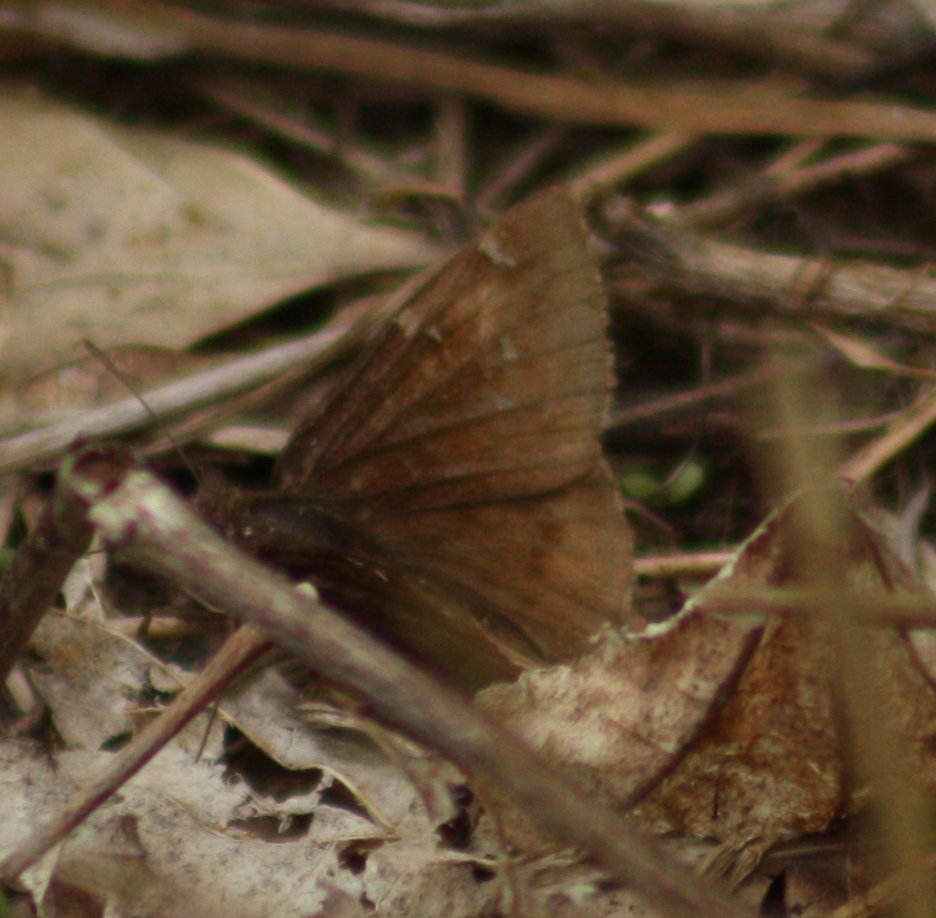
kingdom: Animalia
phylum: Arthropoda
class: Insecta
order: Lepidoptera
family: Hesperiidae
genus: Autochton
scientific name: Autochton
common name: Northern Cloudywing
